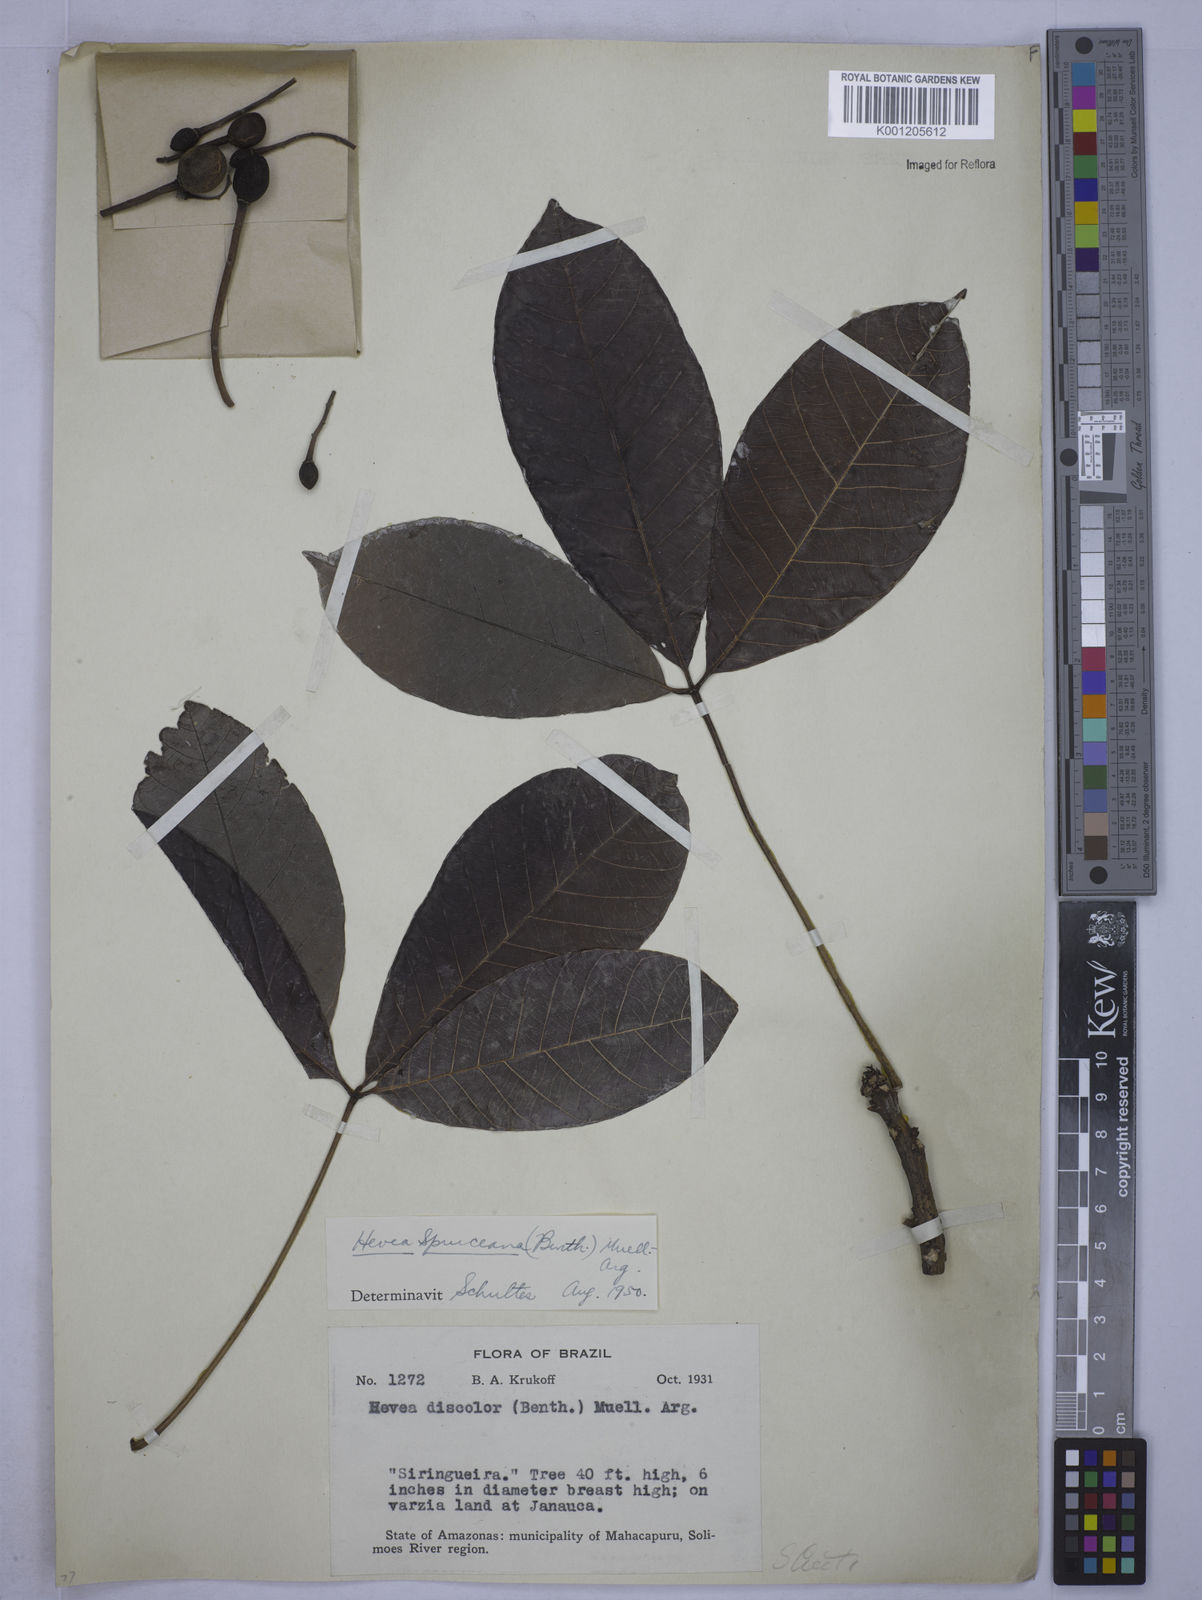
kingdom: Plantae
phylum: Tracheophyta
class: Magnoliopsida
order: Malpighiales
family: Euphorbiaceae
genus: Hevea
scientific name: Hevea
